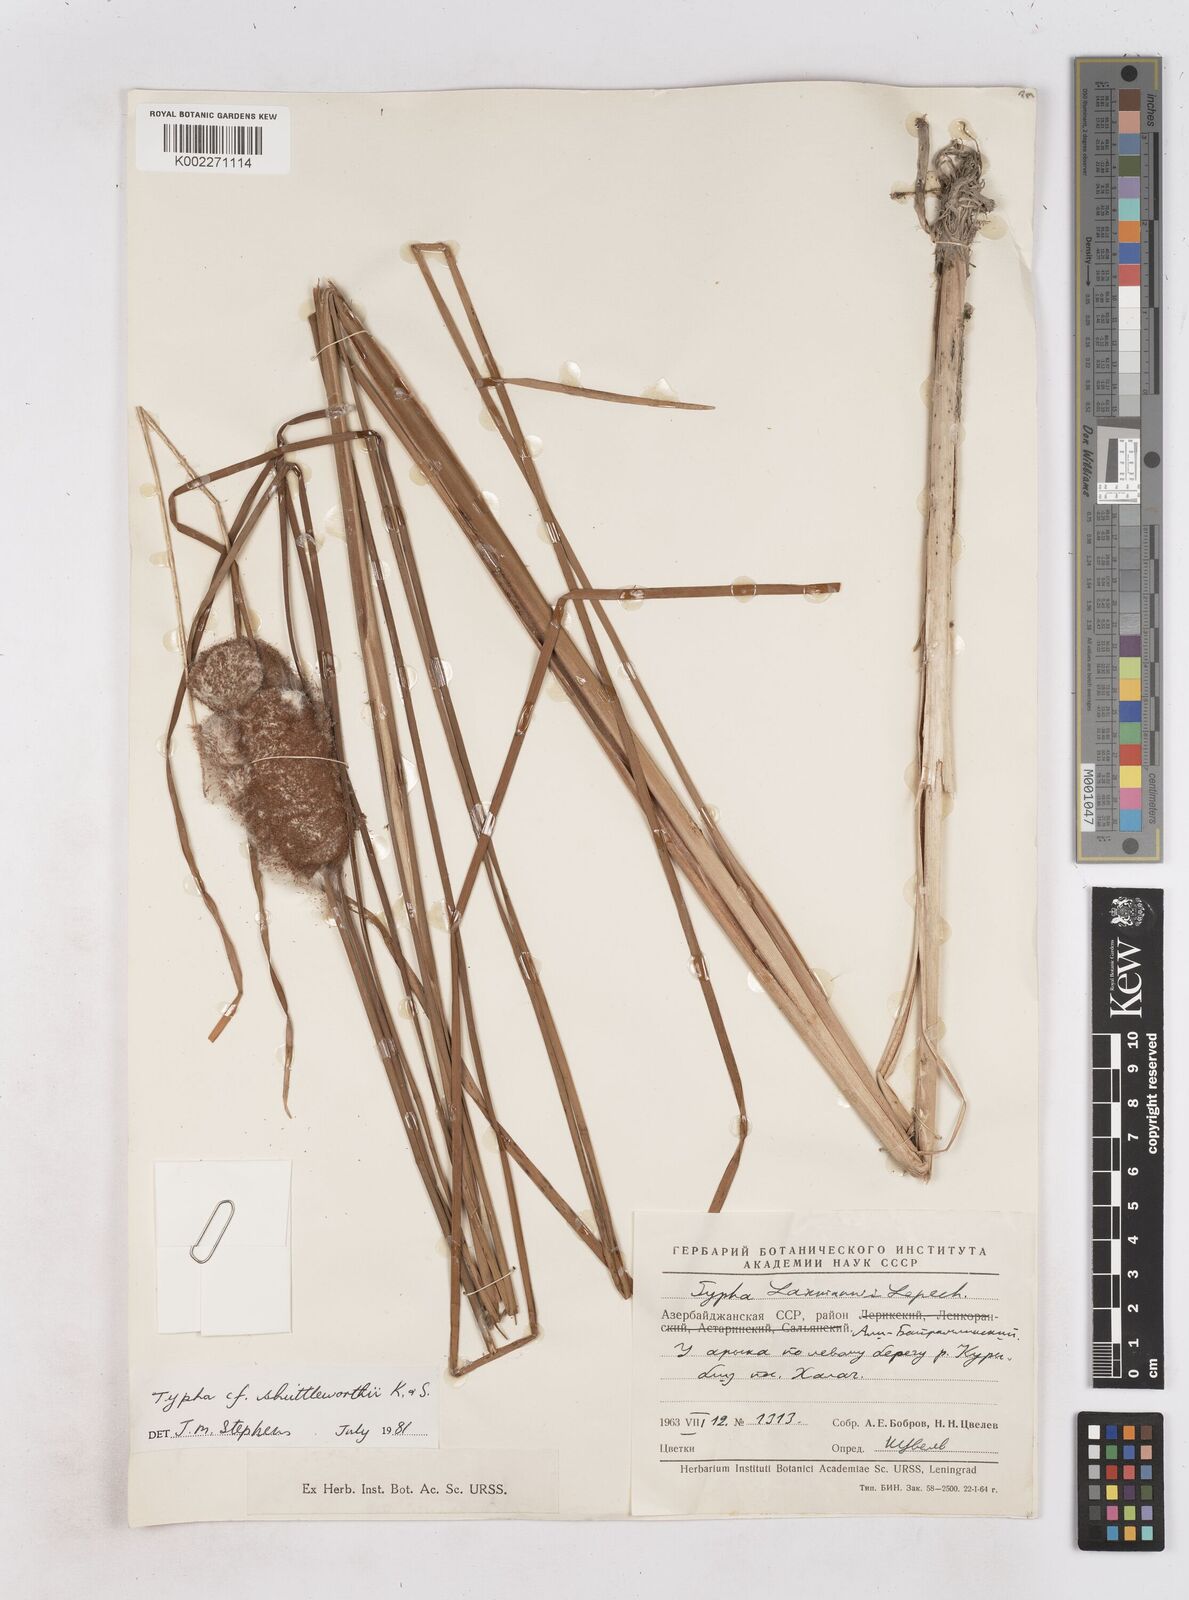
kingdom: Plantae
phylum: Tracheophyta
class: Liliopsida
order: Poales
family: Typhaceae
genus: Typha
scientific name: Typha shuttleworthii
